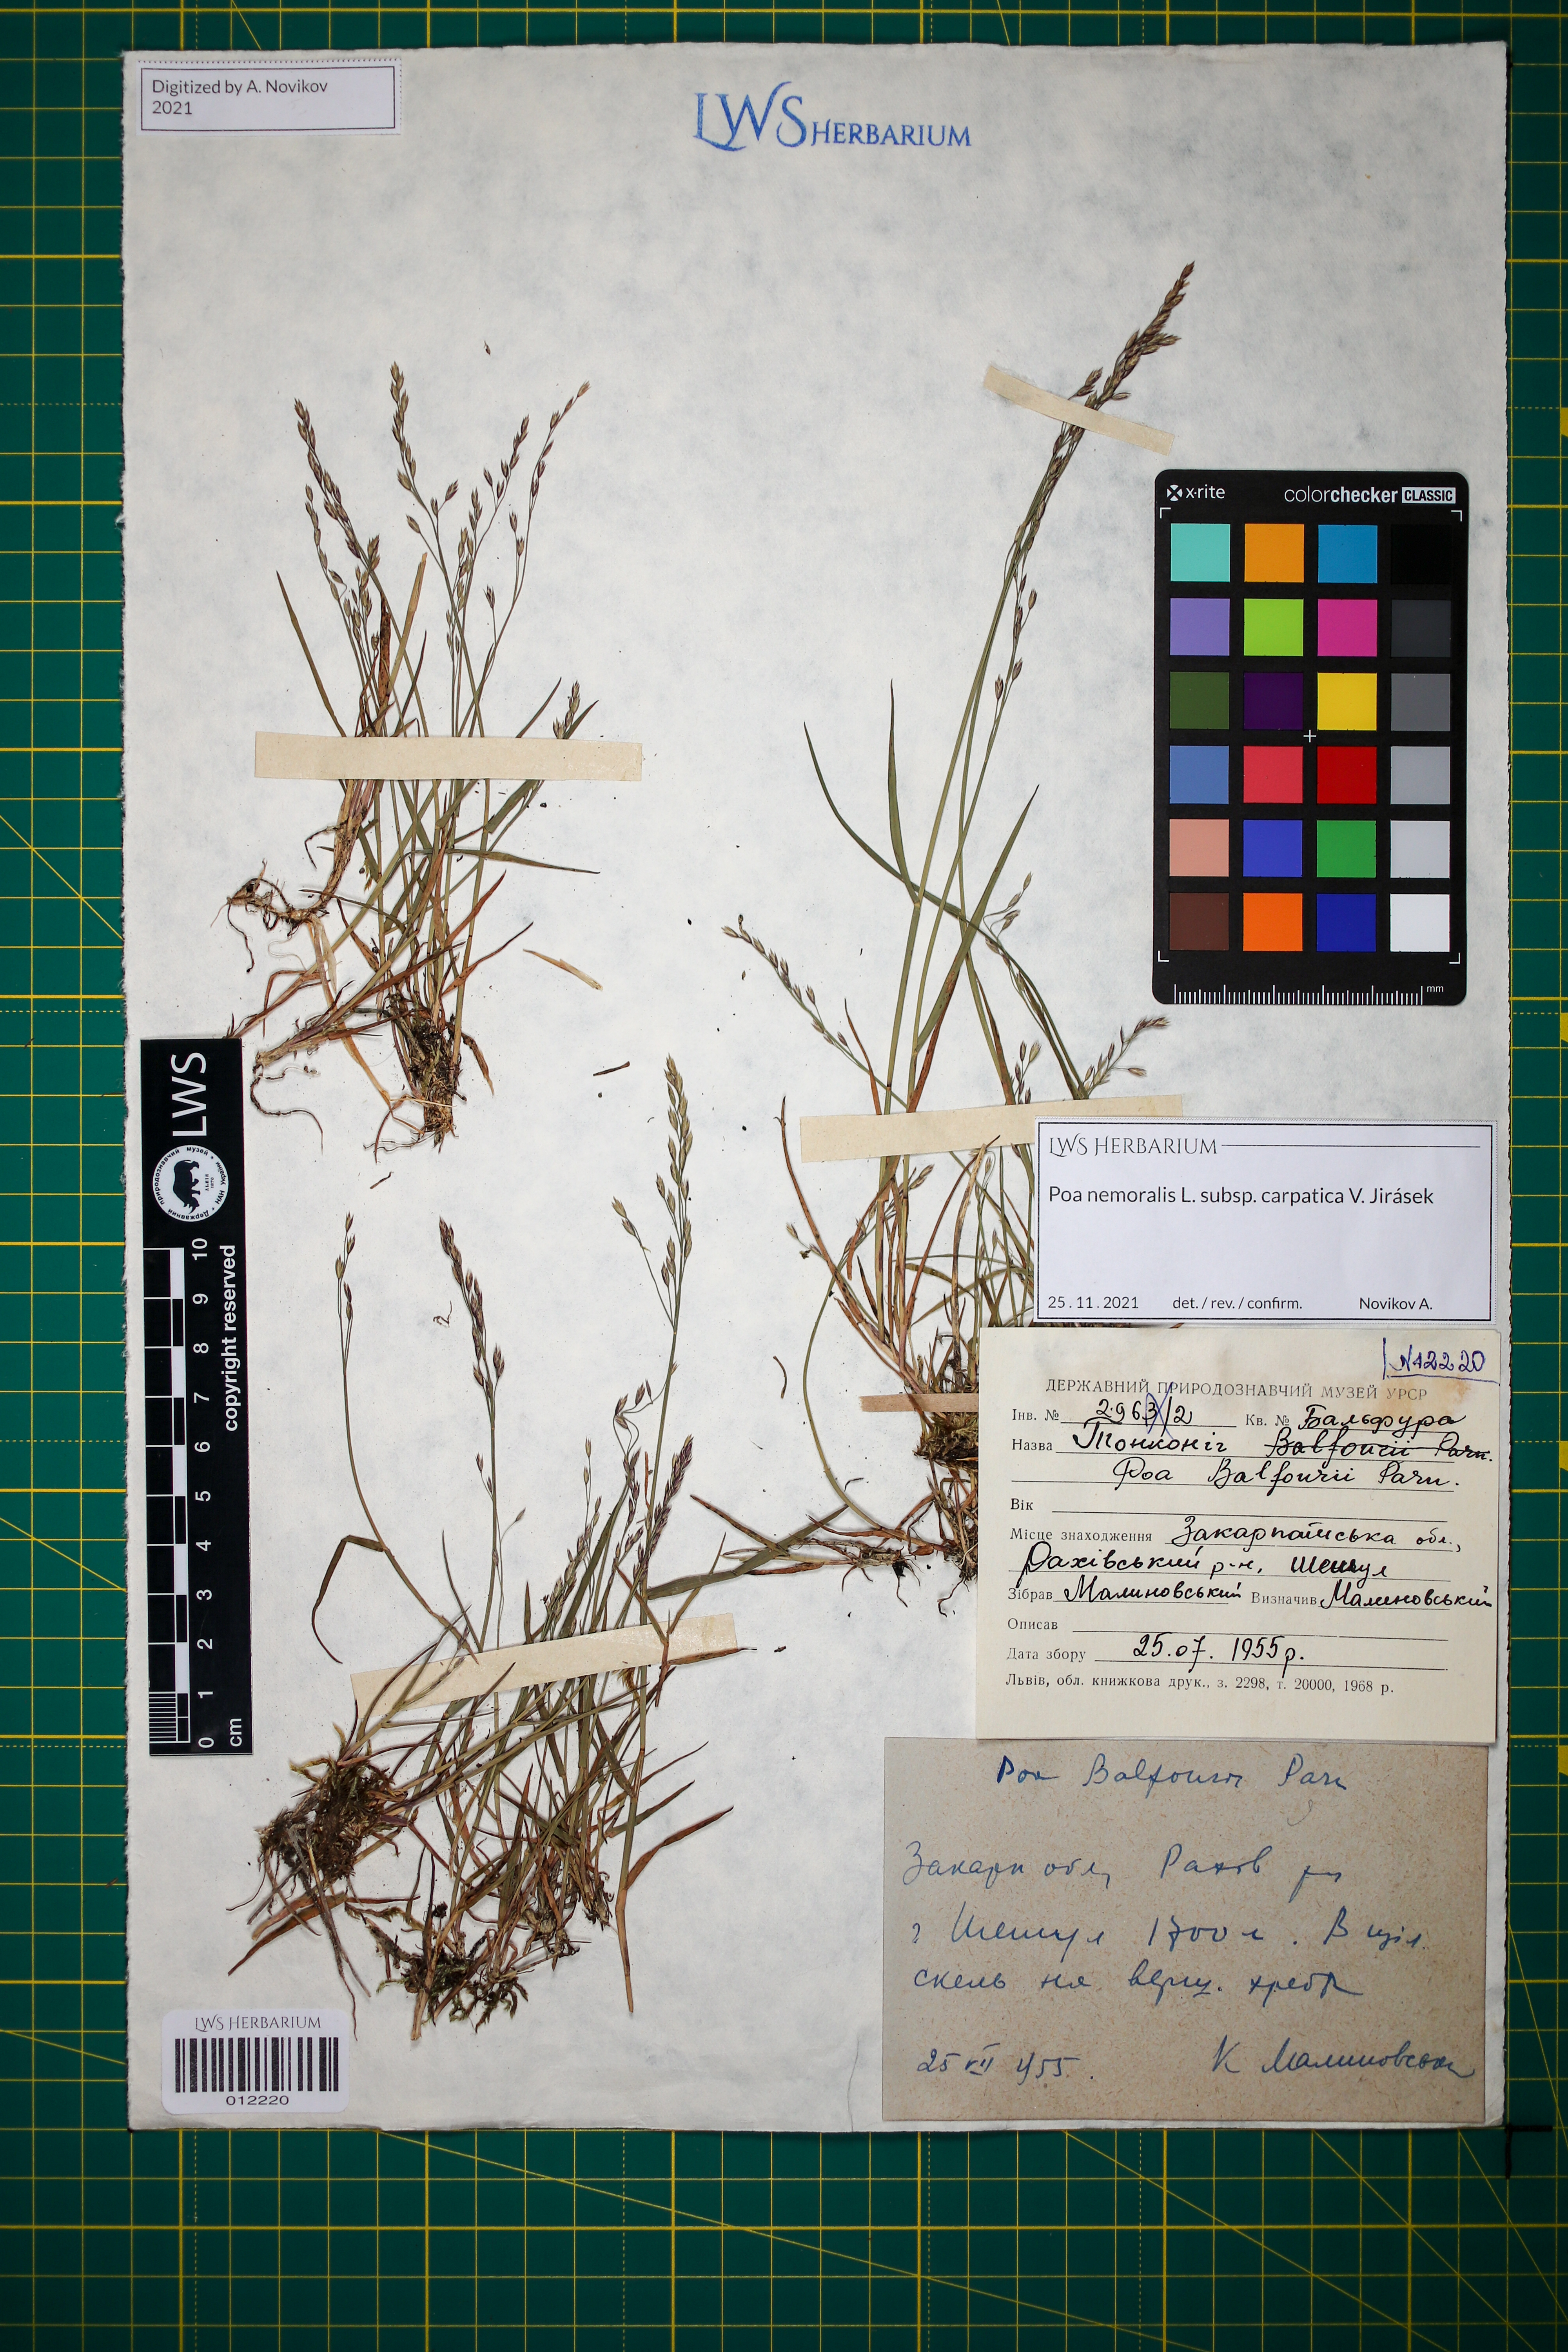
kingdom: Plantae
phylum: Tracheophyta
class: Liliopsida
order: Poales
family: Poaceae
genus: Poa
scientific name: Poa carpatica
